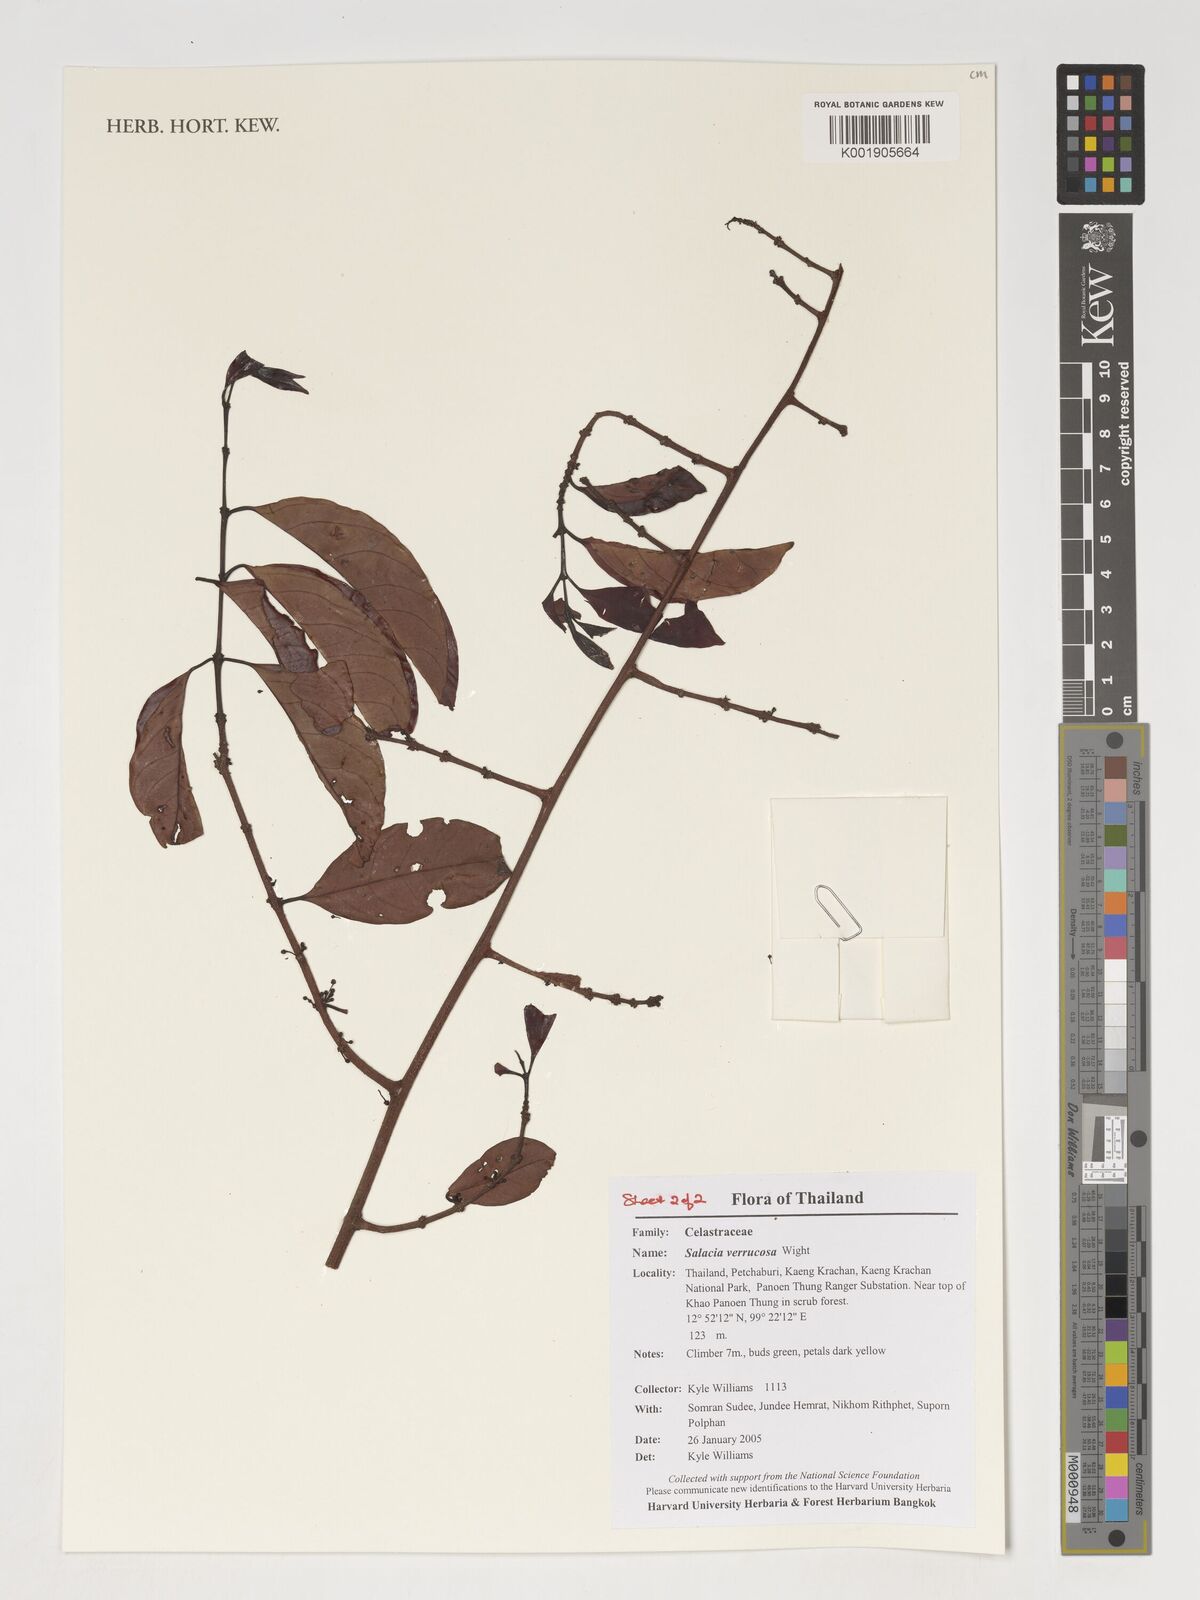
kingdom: Plantae
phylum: Tracheophyta
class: Magnoliopsida
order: Celastrales
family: Celastraceae
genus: Salacia
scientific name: Salacia verrucosa
